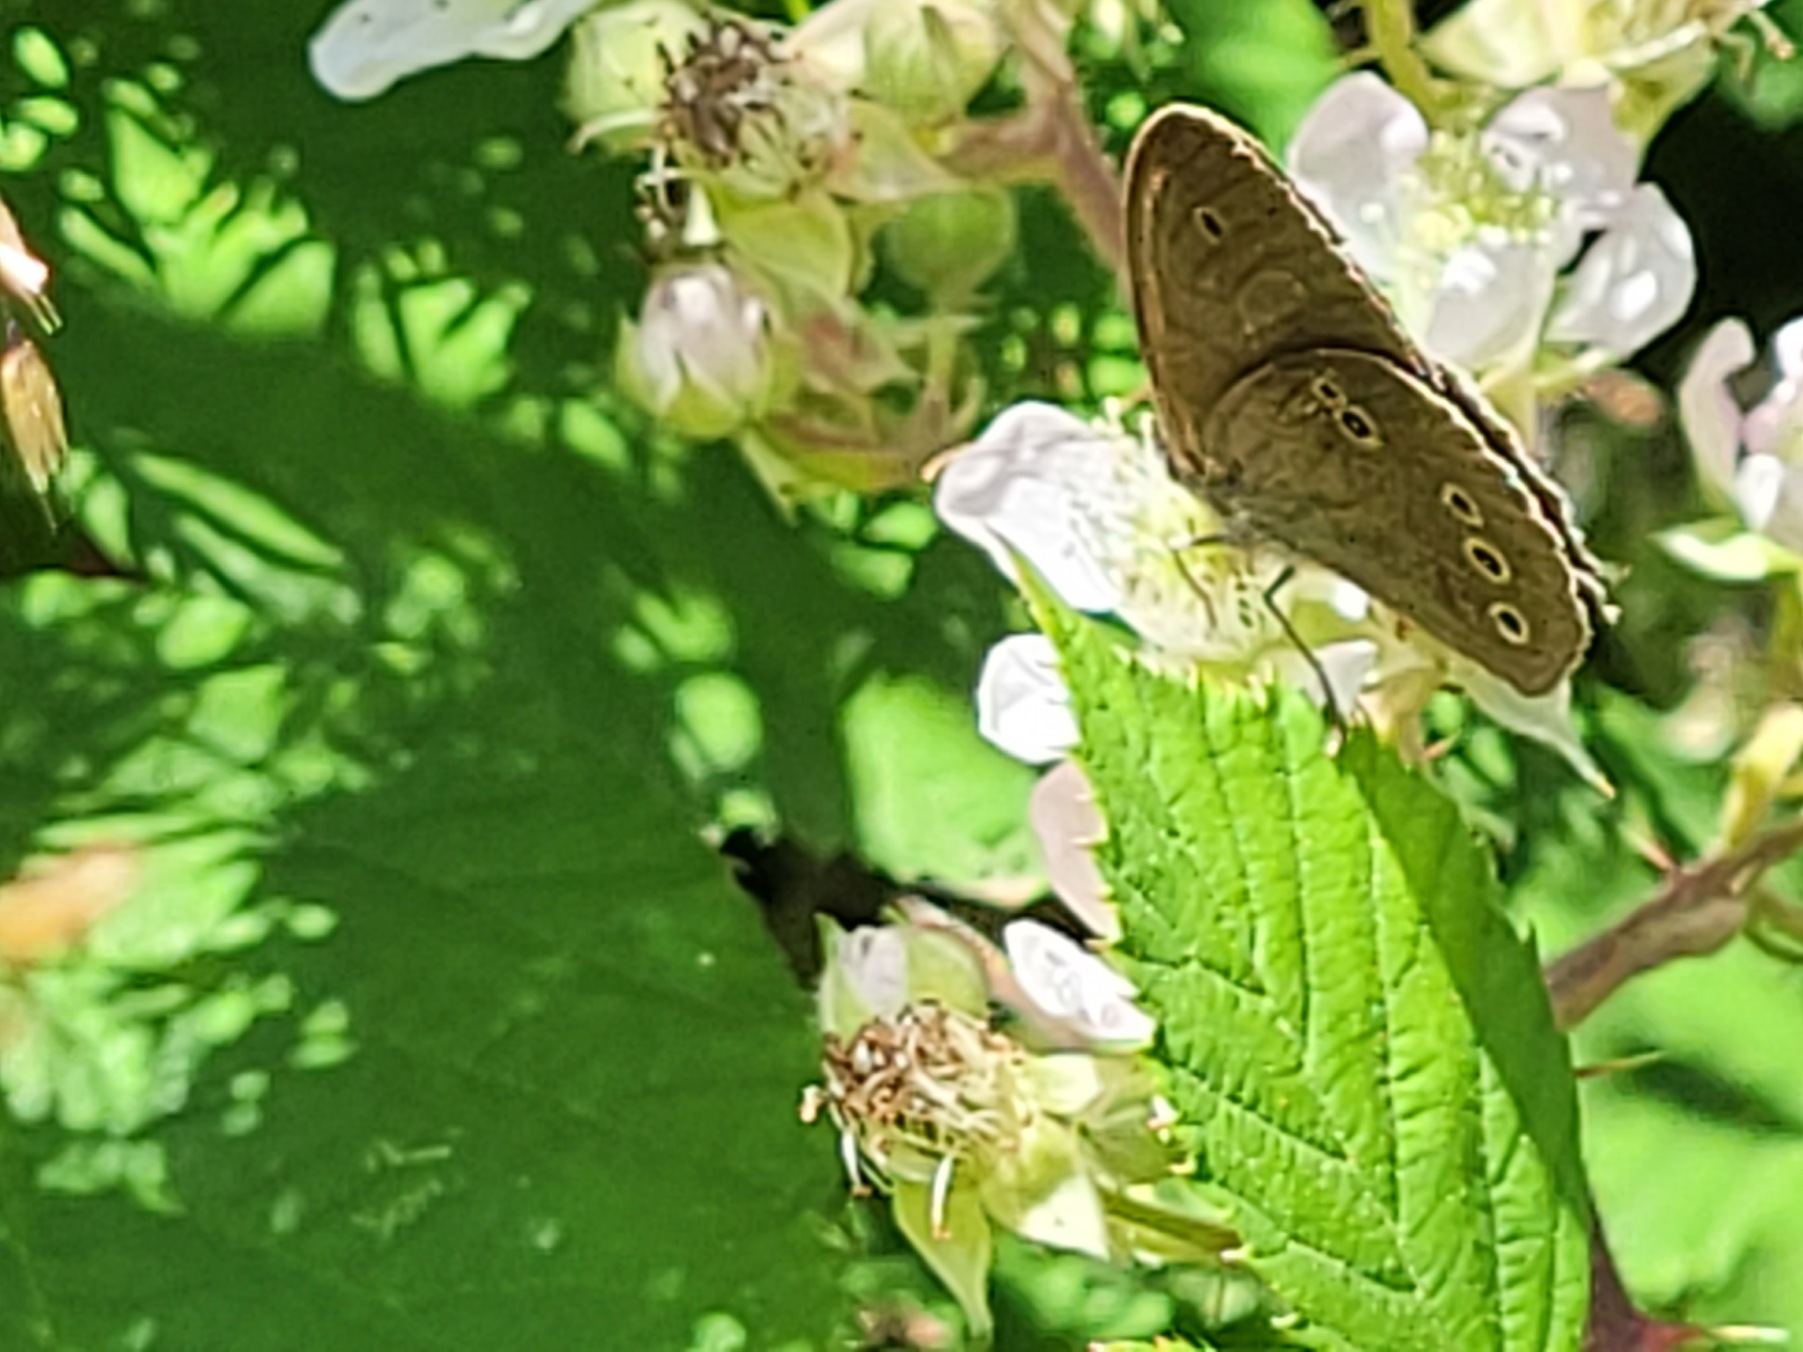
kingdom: Animalia
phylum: Arthropoda
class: Insecta
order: Lepidoptera
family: Nymphalidae
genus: Aphantopus
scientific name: Aphantopus hyperantus
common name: Engrandøje
